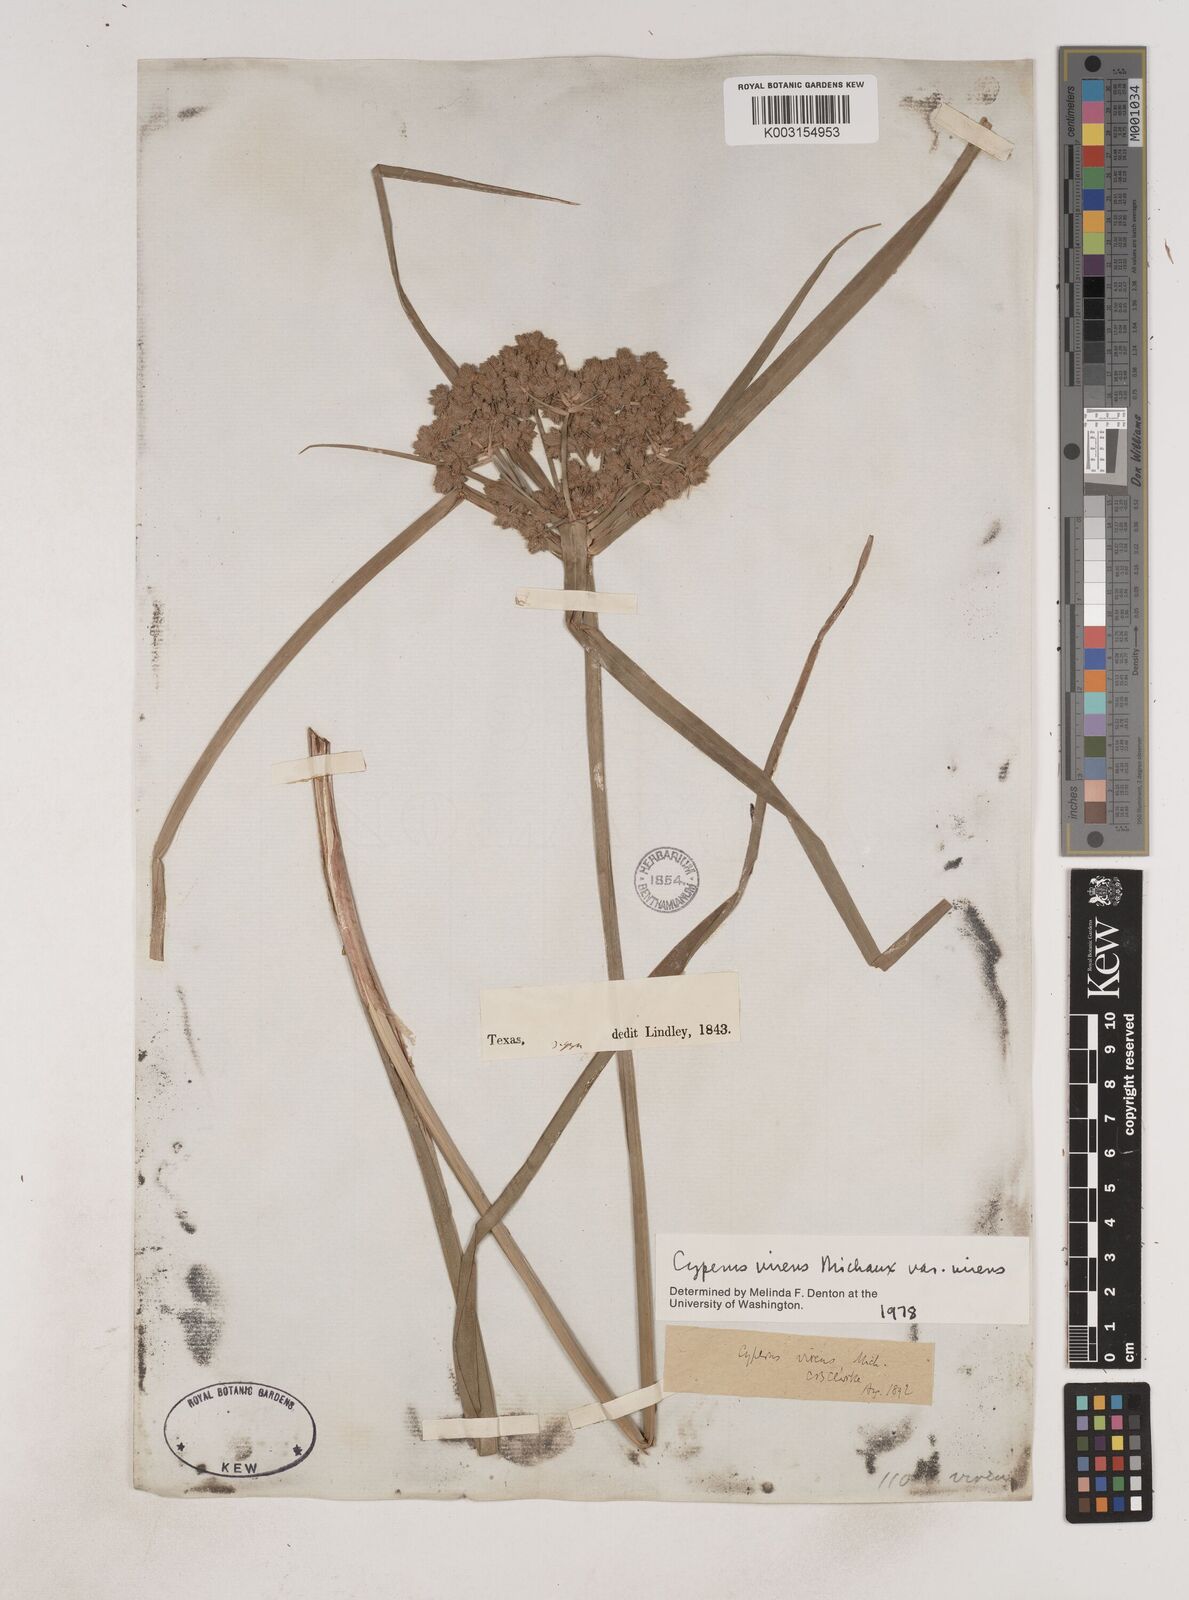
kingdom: Plantae
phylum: Tracheophyta
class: Liliopsida
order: Poales
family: Cyperaceae
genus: Cyperus
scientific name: Cyperus virens
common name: Green flatsedge
